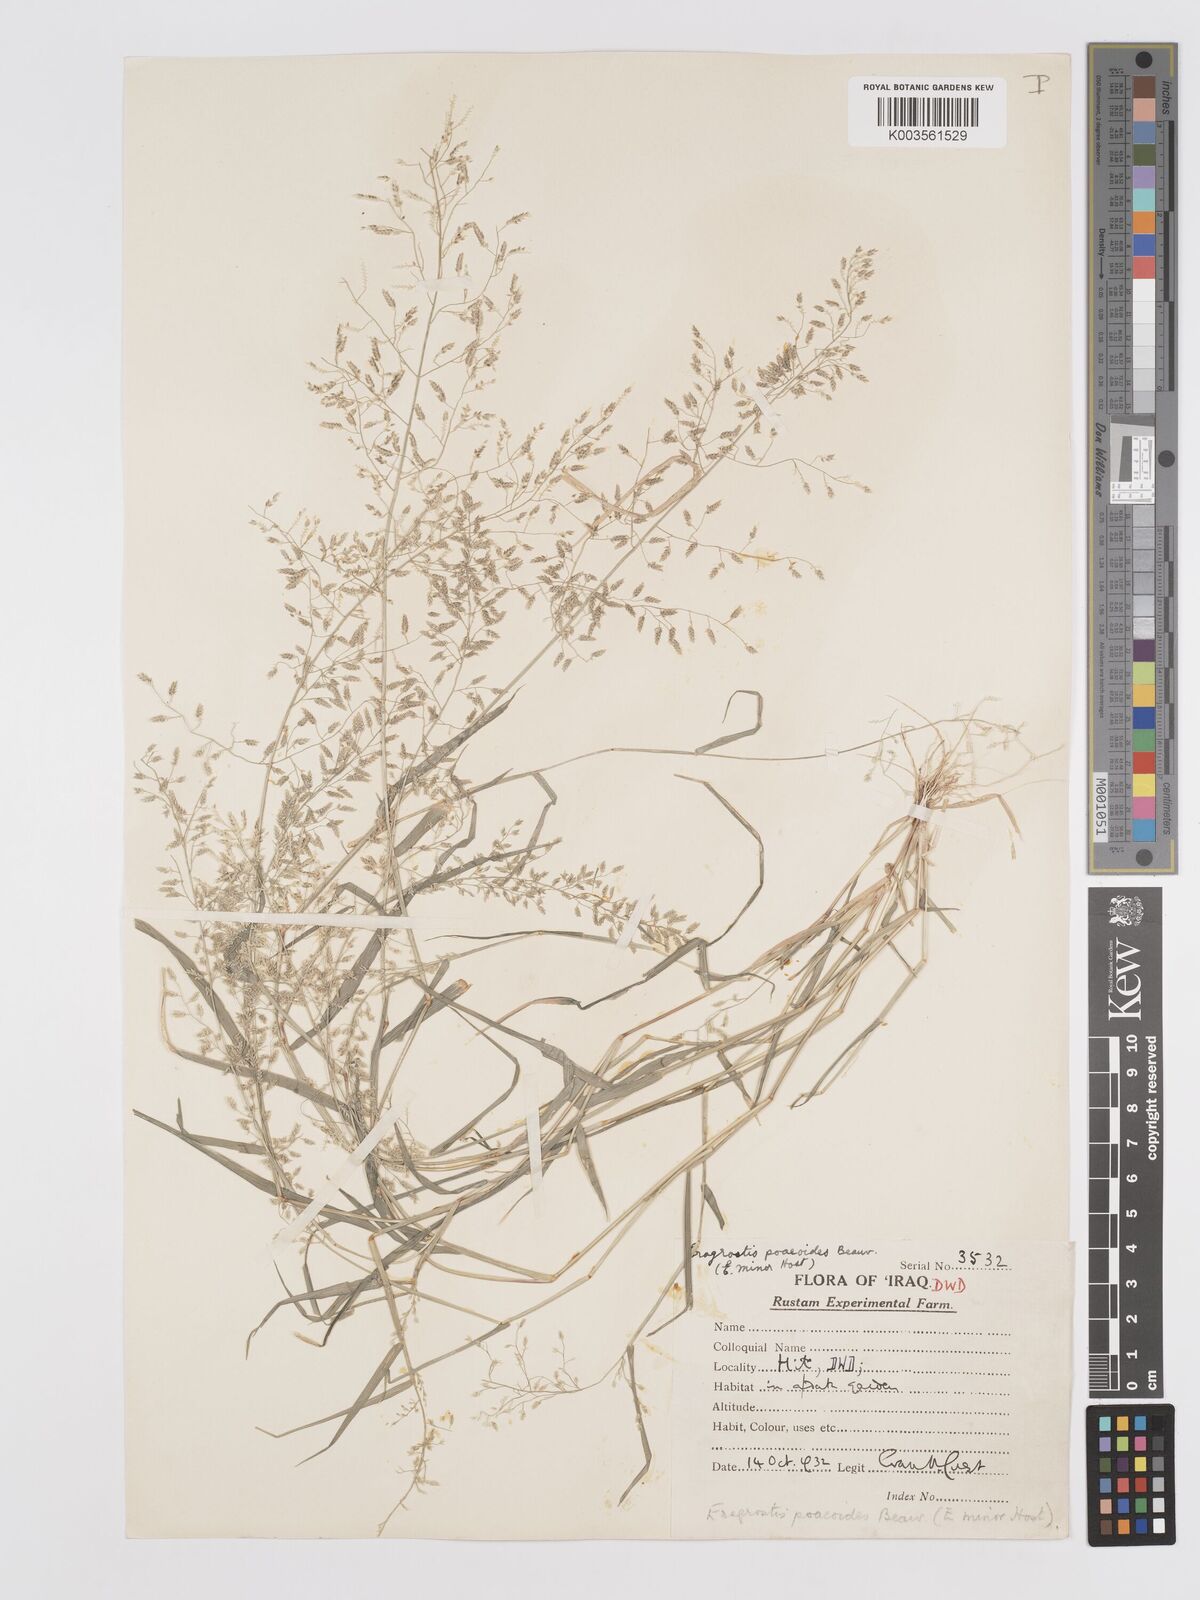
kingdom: Plantae
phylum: Tracheophyta
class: Liliopsida
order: Poales
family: Poaceae
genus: Eragrostis
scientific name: Eragrostis minor
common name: Small love-grass
